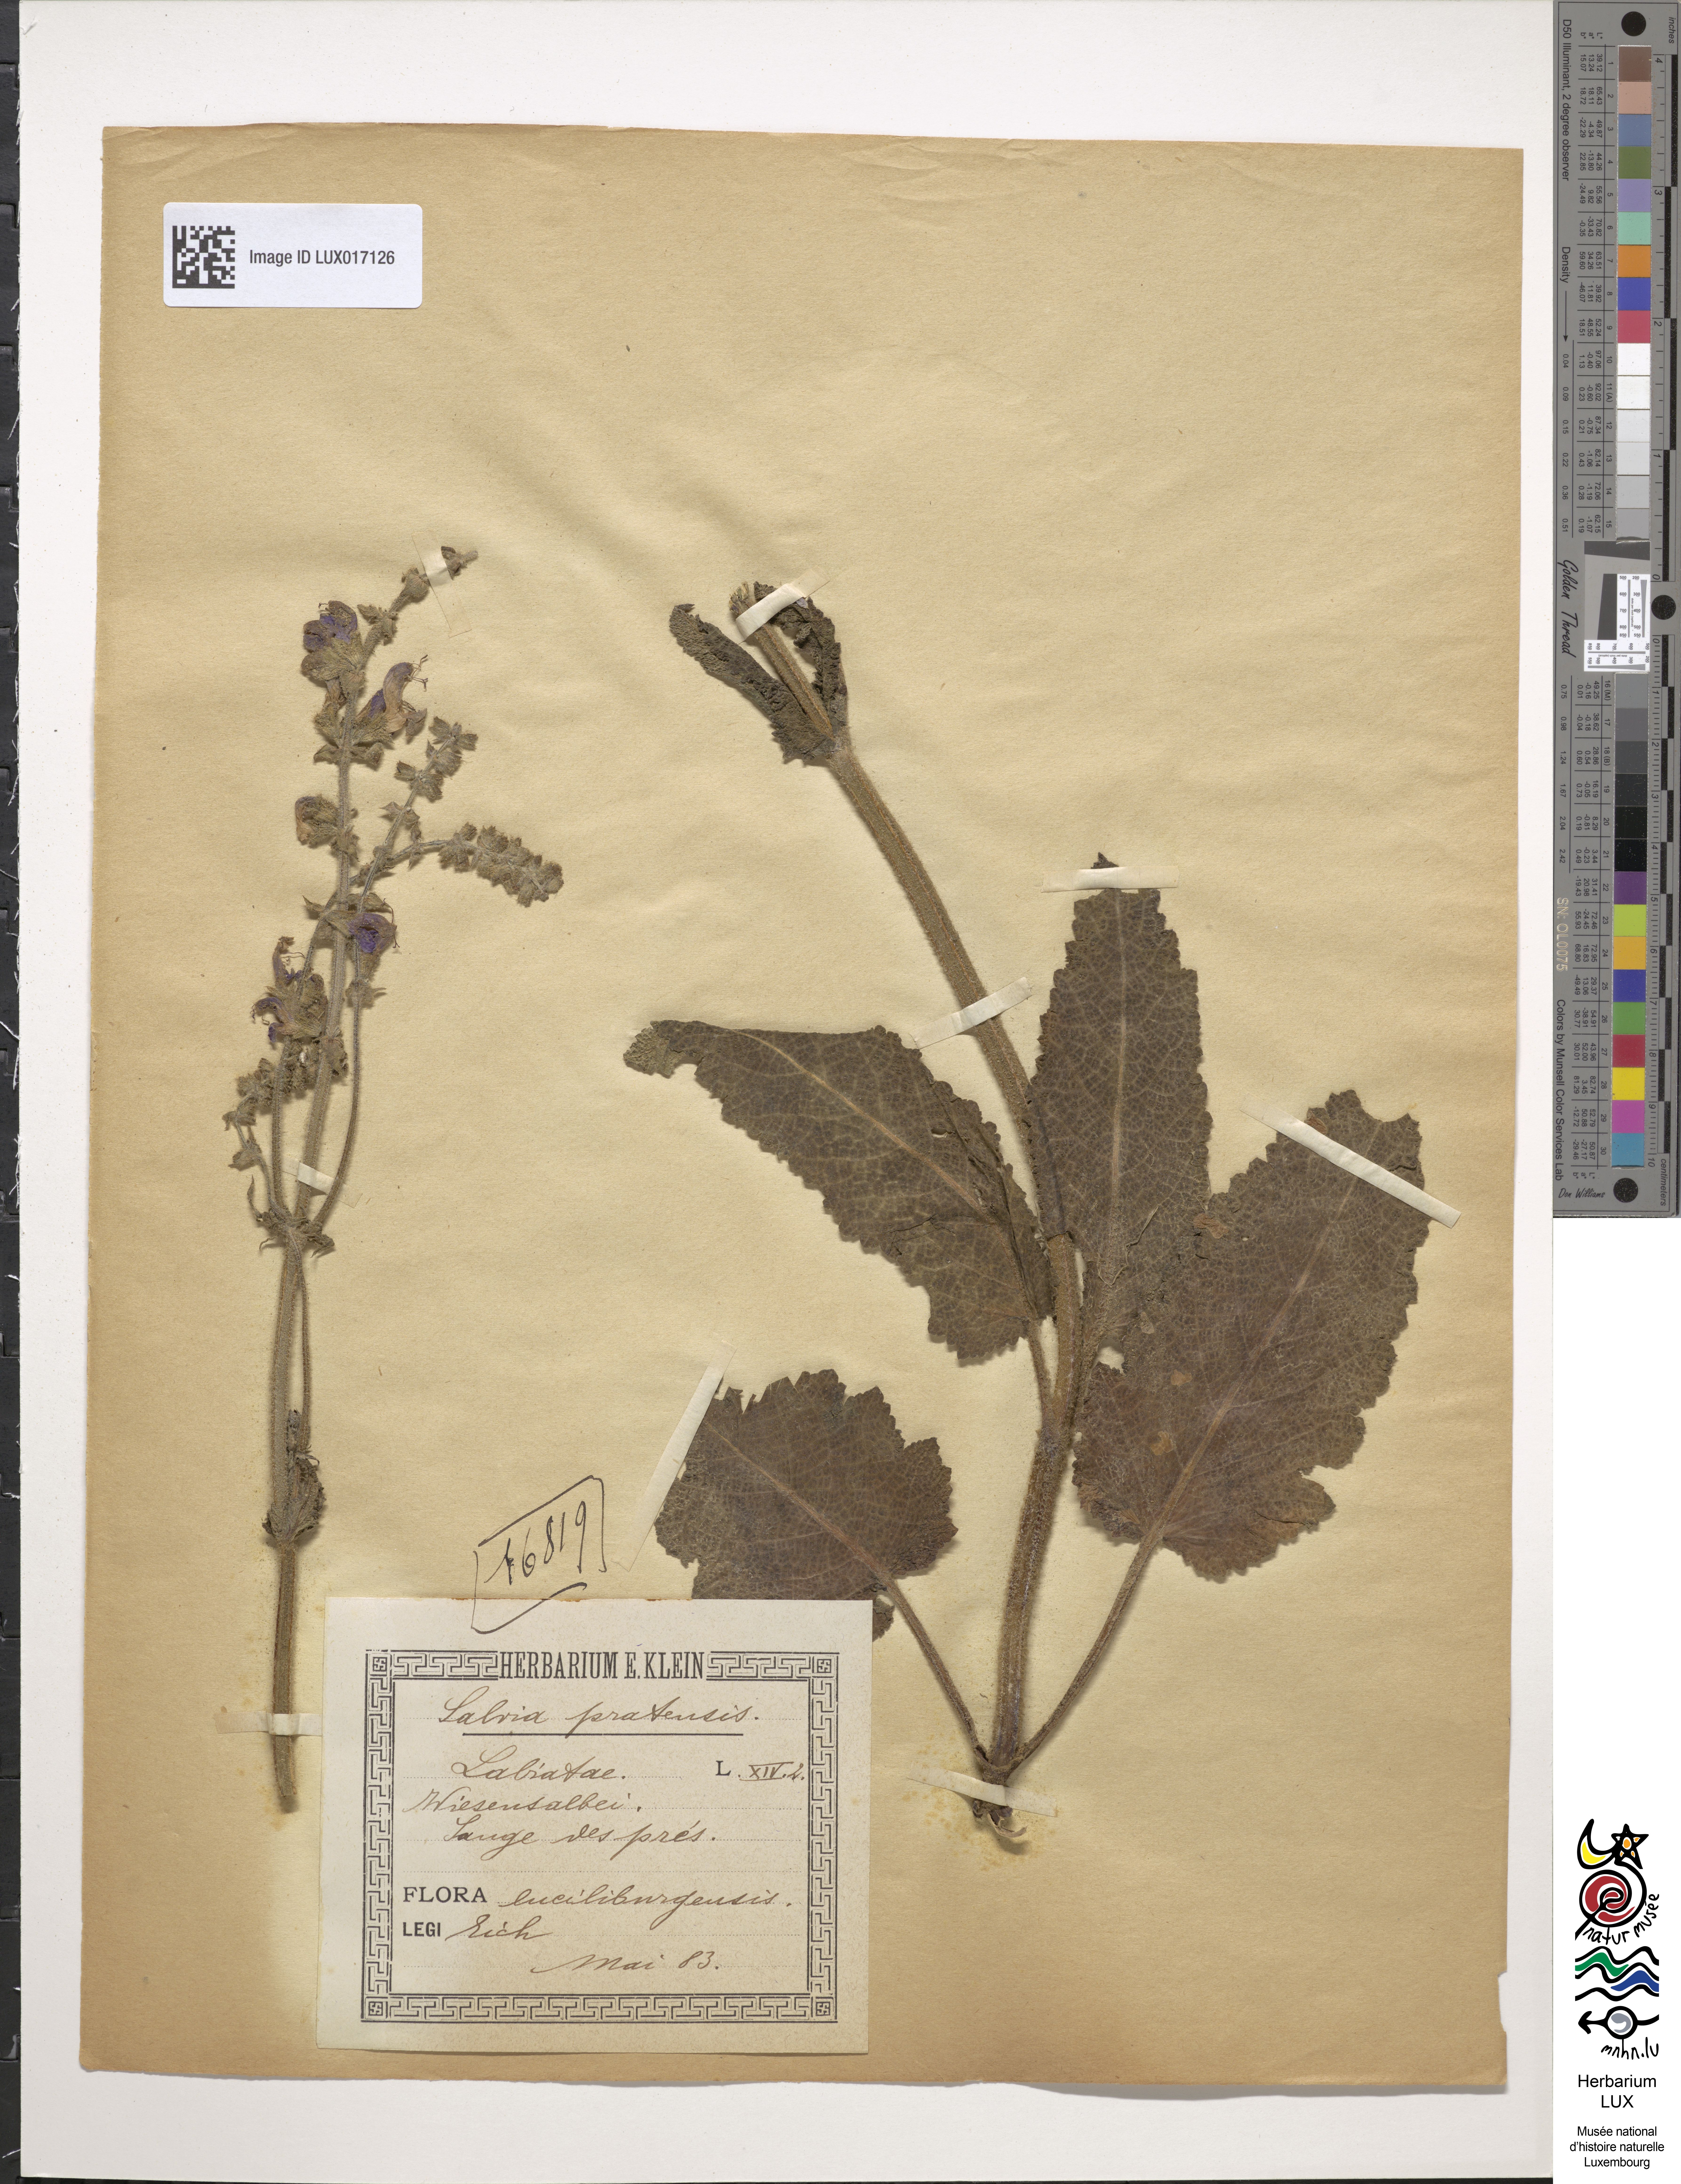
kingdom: Plantae
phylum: Tracheophyta
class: Magnoliopsida
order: Lamiales
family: Lamiaceae
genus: Salvia
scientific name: Salvia pratensis
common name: Meadow sage
